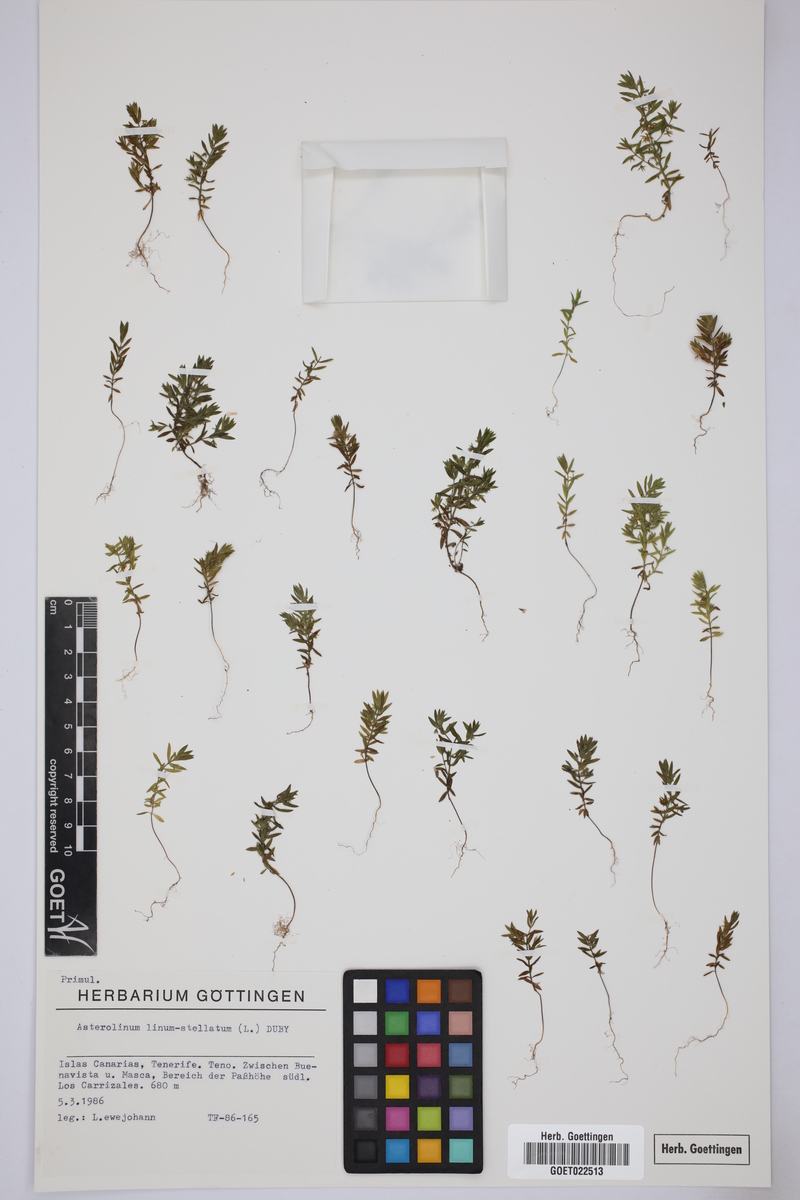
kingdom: Plantae
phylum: Tracheophyta
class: Magnoliopsida
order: Ericales
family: Primulaceae
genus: Lysimachia
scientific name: Lysimachia linum-stellatum
